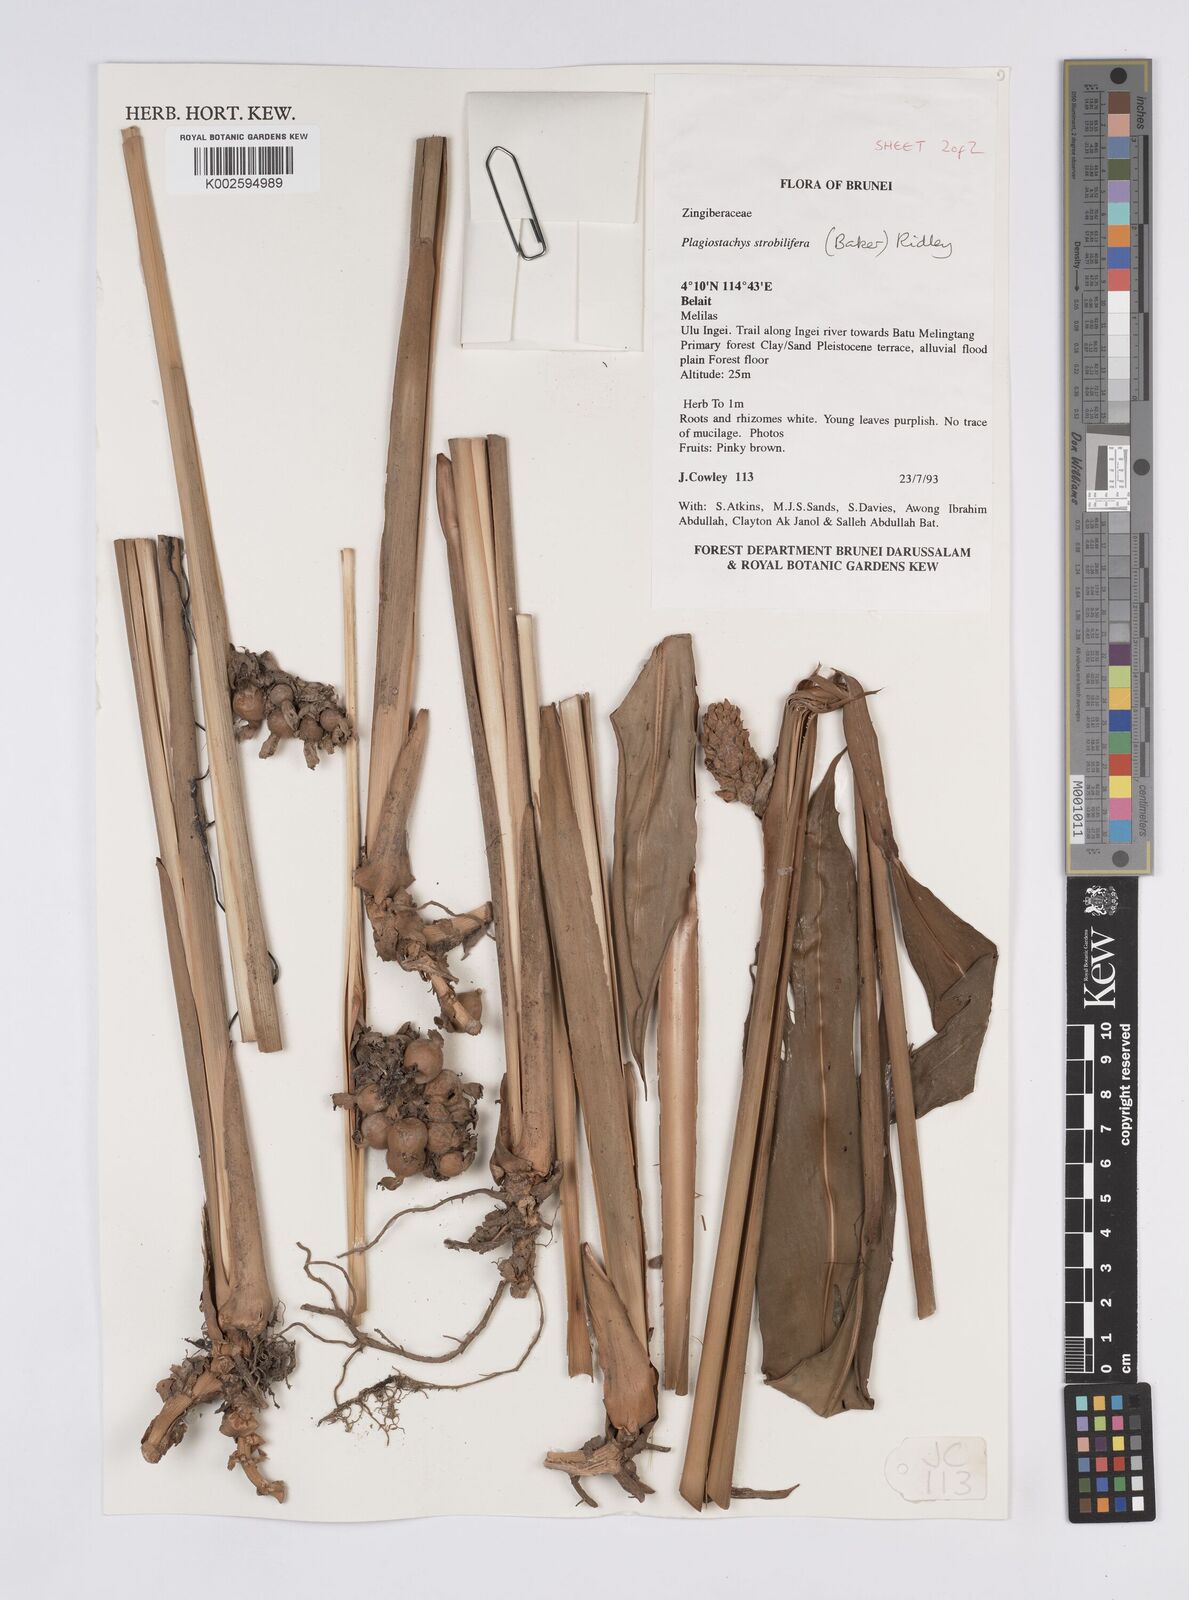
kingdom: Plantae
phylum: Tracheophyta
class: Liliopsida
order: Zingiberales
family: Zingiberaceae
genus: Plagiostachys
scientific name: Plagiostachys strobilifera
